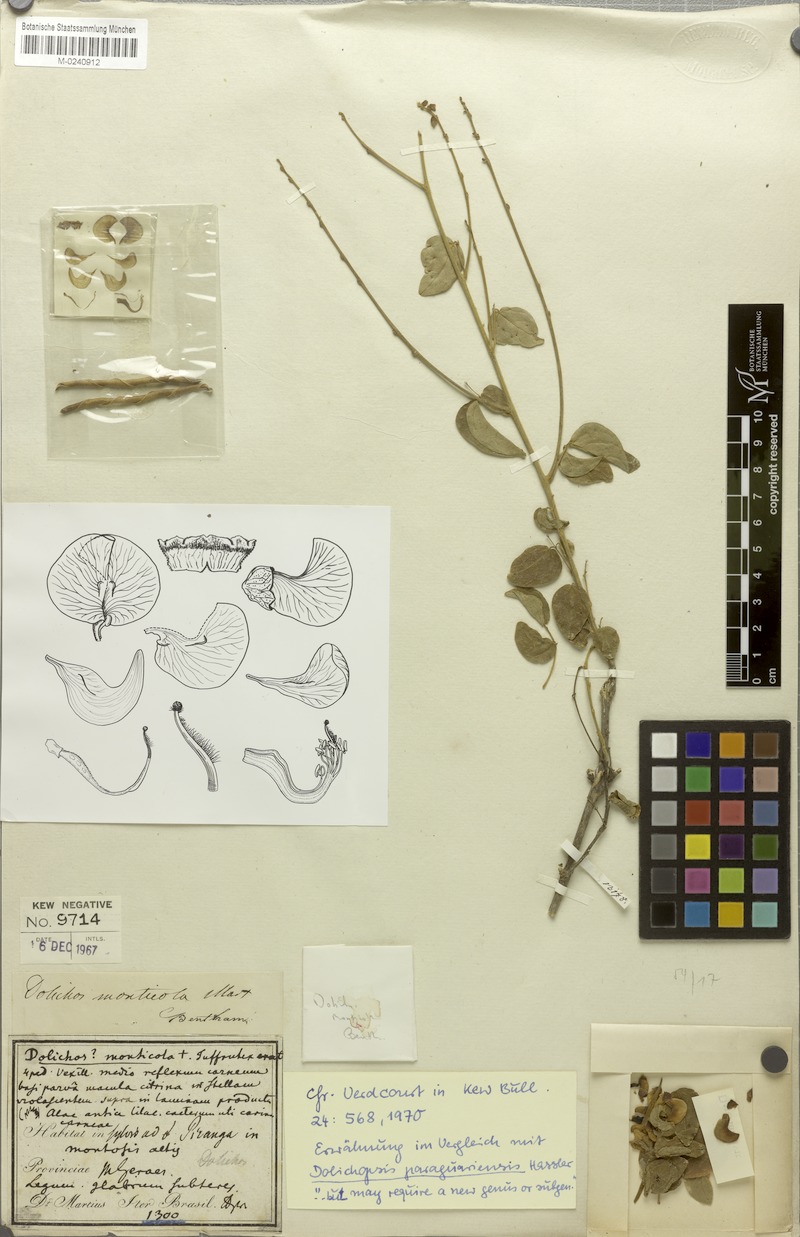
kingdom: Plantae
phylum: Tracheophyta
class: Magnoliopsida
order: Fabales
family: Fabaceae
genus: Dolichopsis
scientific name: Dolichopsis monticola
